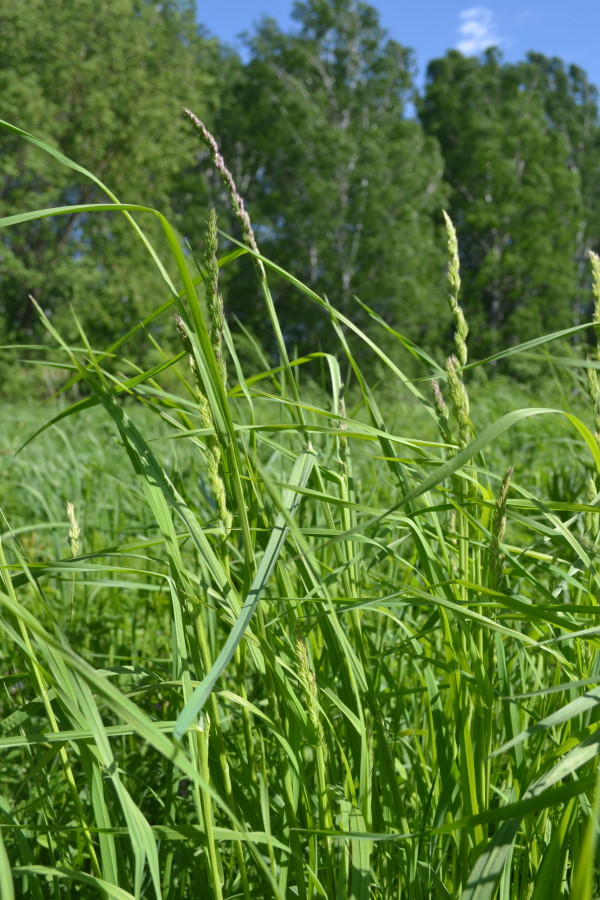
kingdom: Plantae
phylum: Tracheophyta
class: Liliopsida
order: Poales
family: Poaceae
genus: Dactylis
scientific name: Dactylis glomerata
